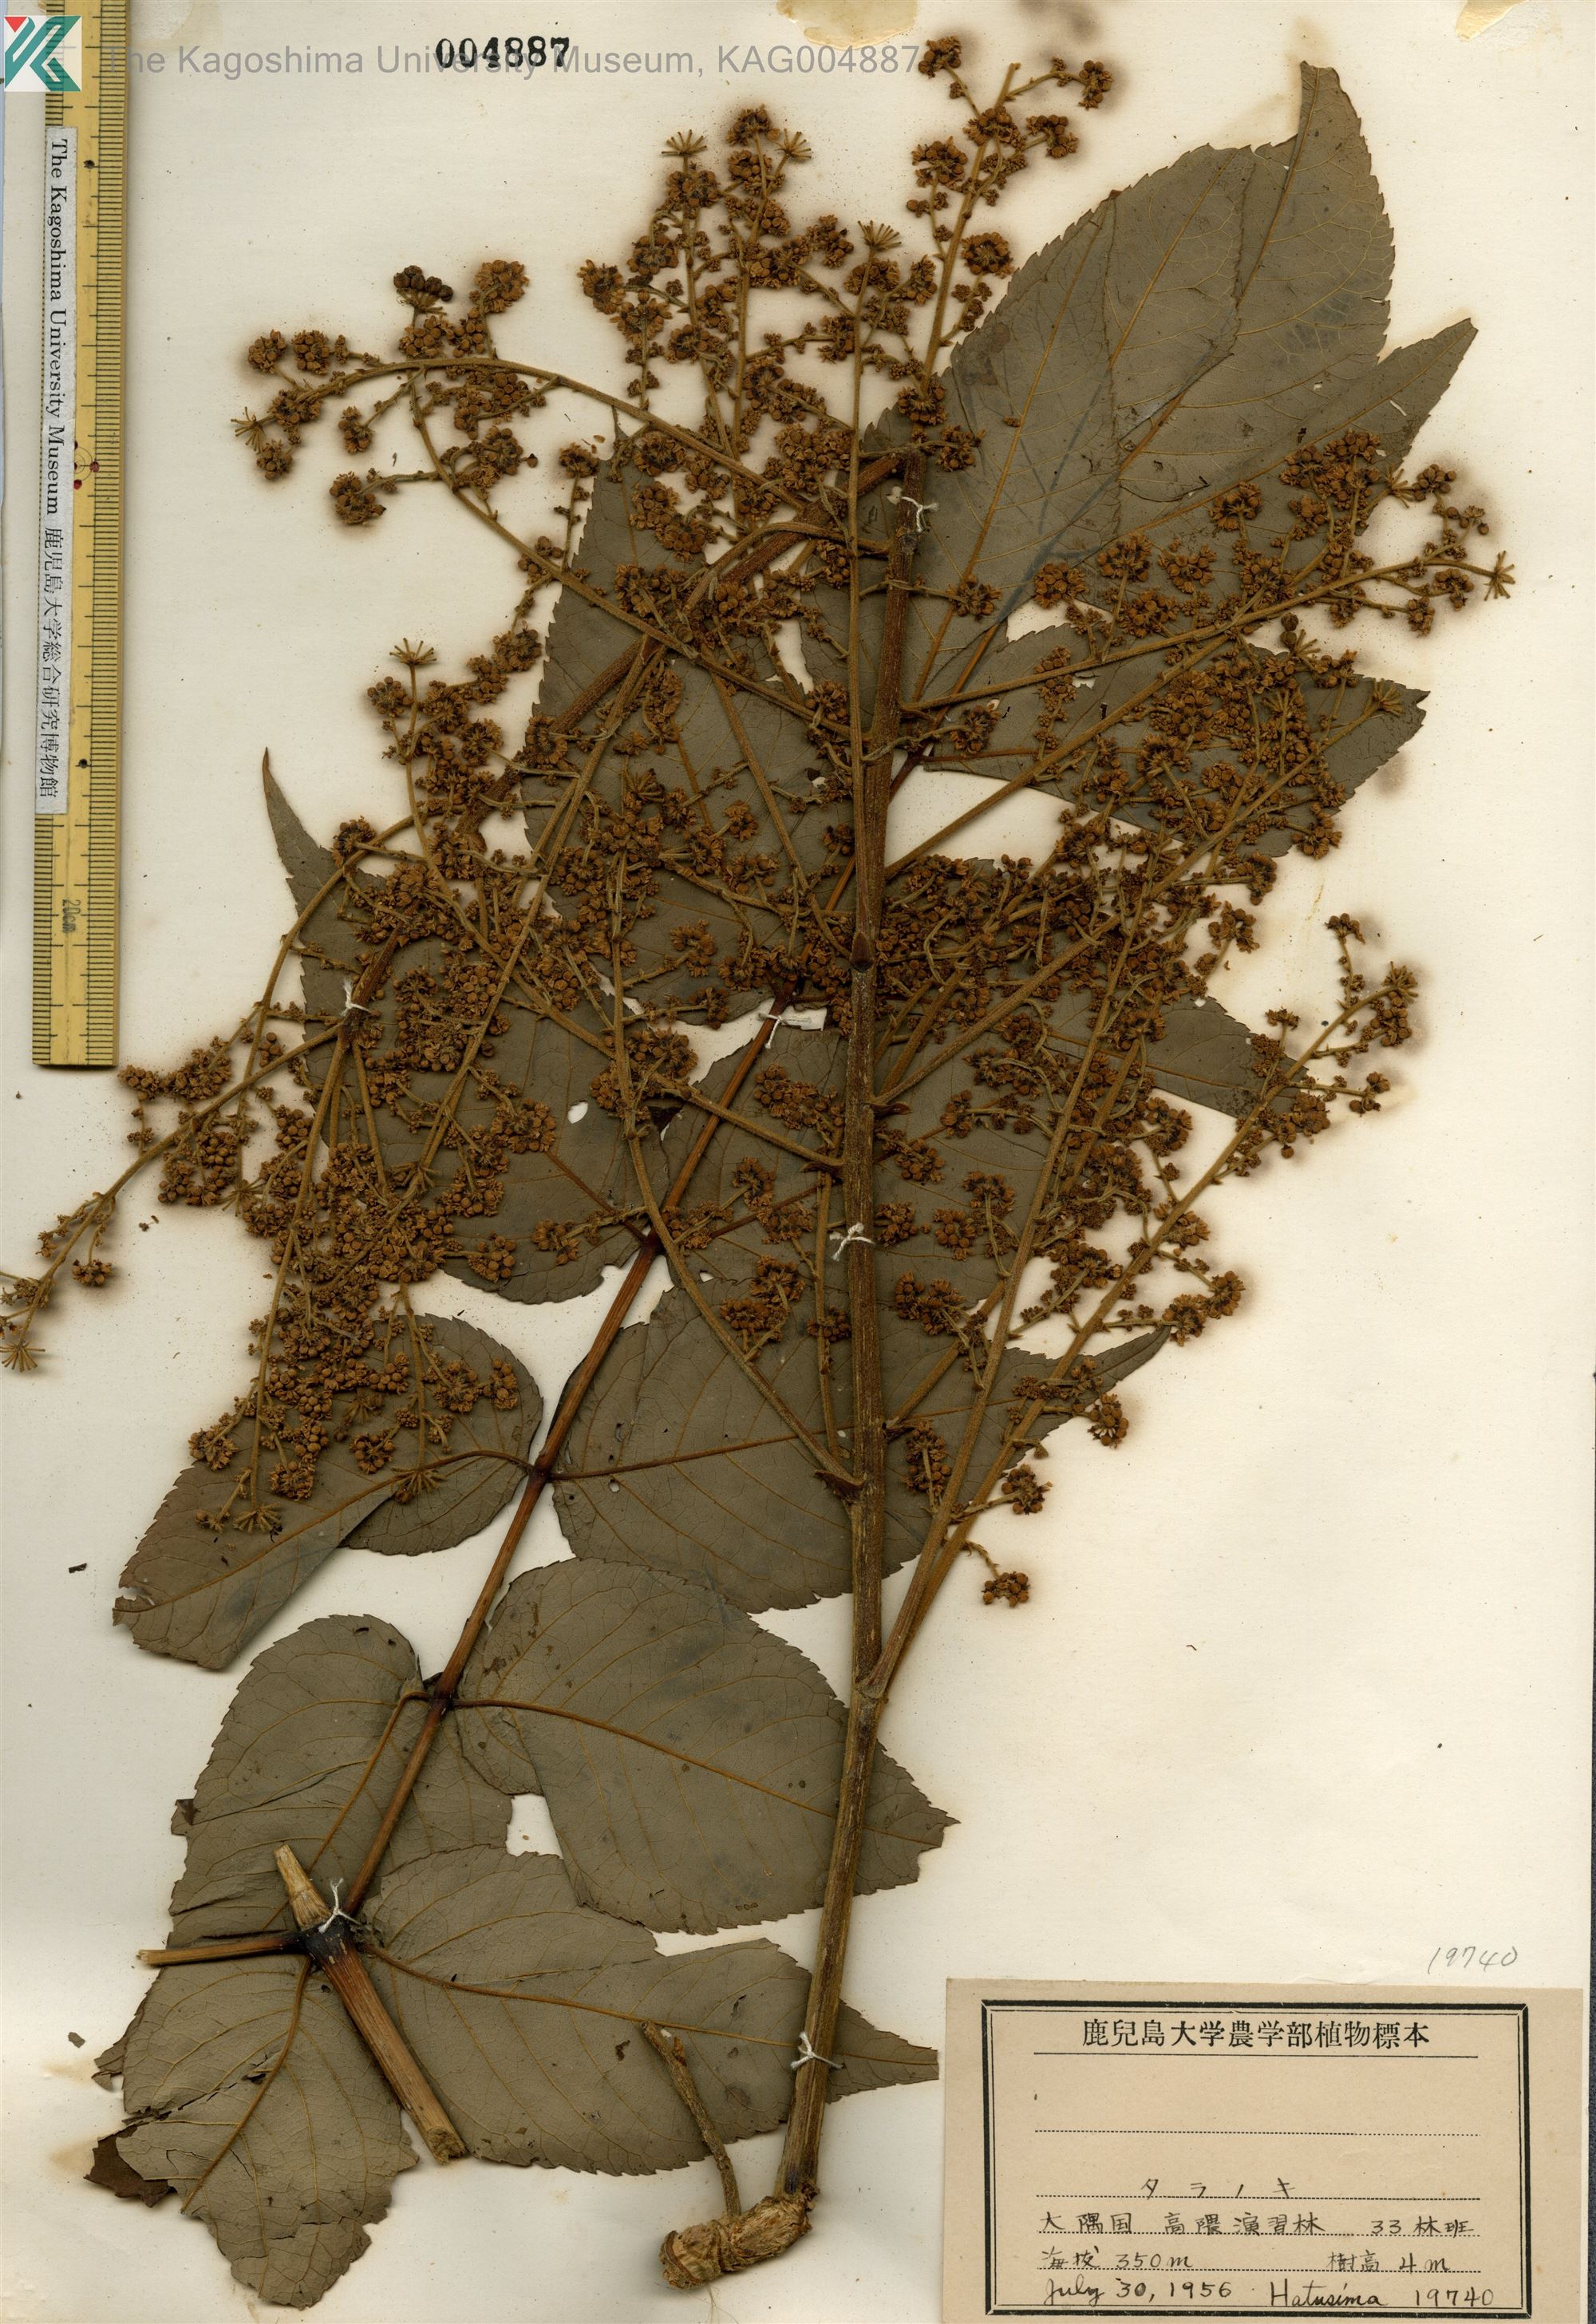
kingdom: Plantae
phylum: Tracheophyta
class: Magnoliopsida
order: Apiales
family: Araliaceae
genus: Aralia
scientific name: Aralia elata
